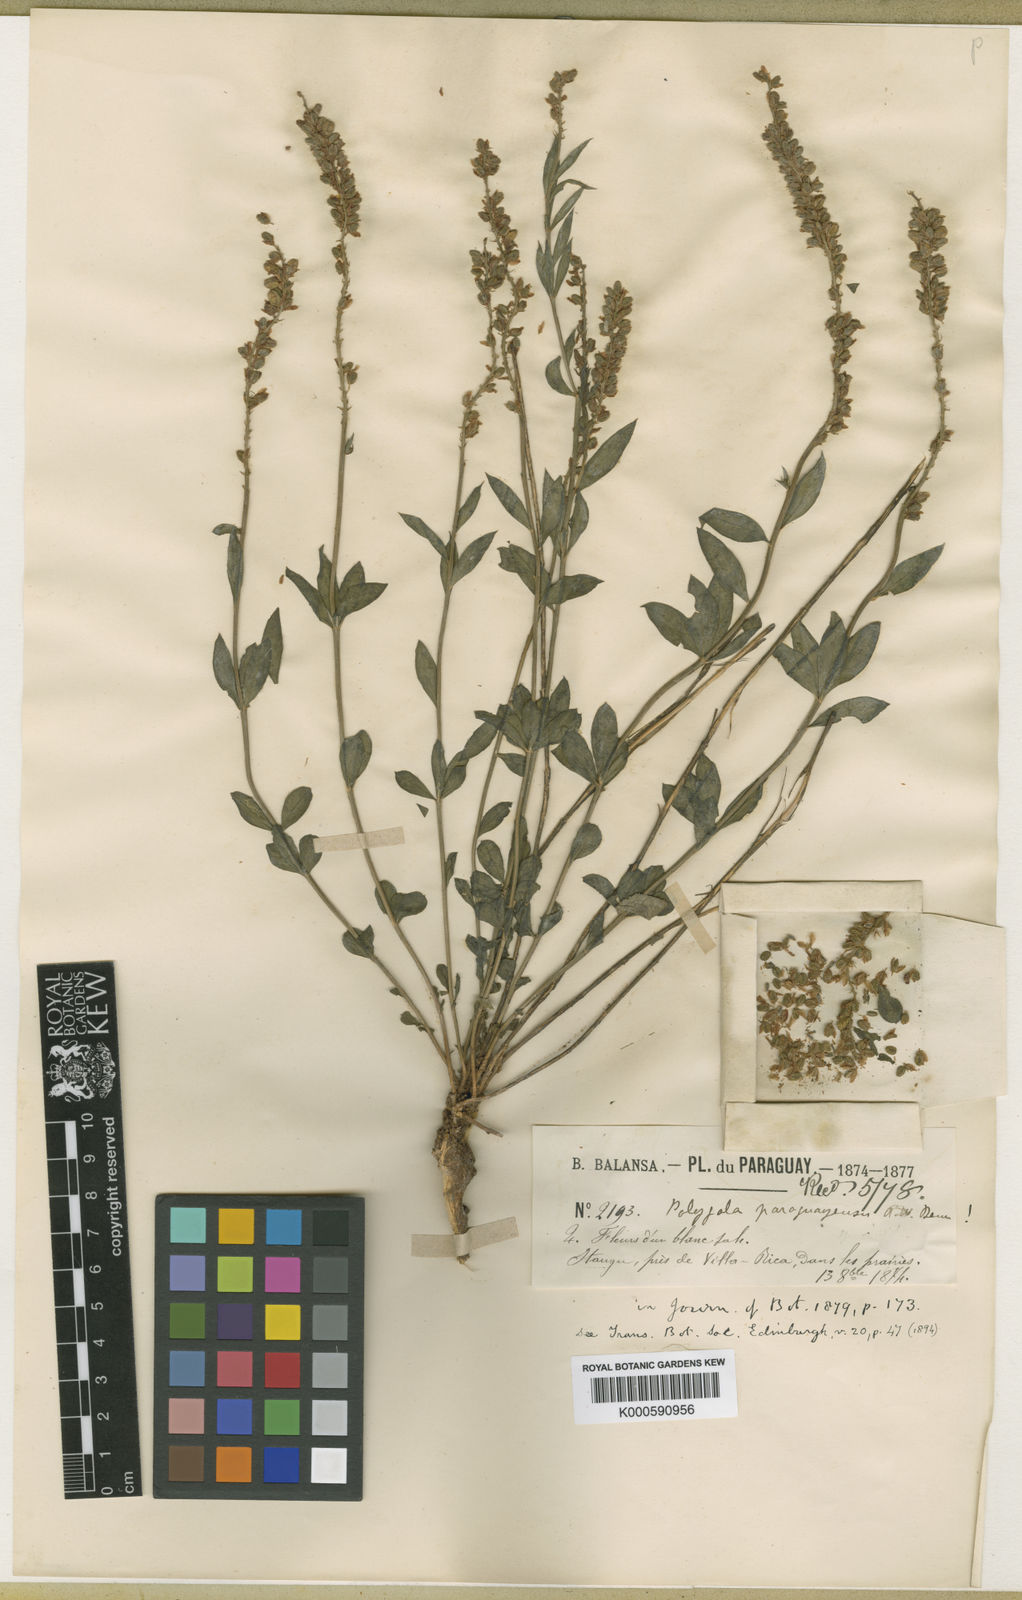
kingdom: Plantae
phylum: Tracheophyta
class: Magnoliopsida
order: Fabales
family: Polygalaceae
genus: Polygala
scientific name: Polygala adenophylla
